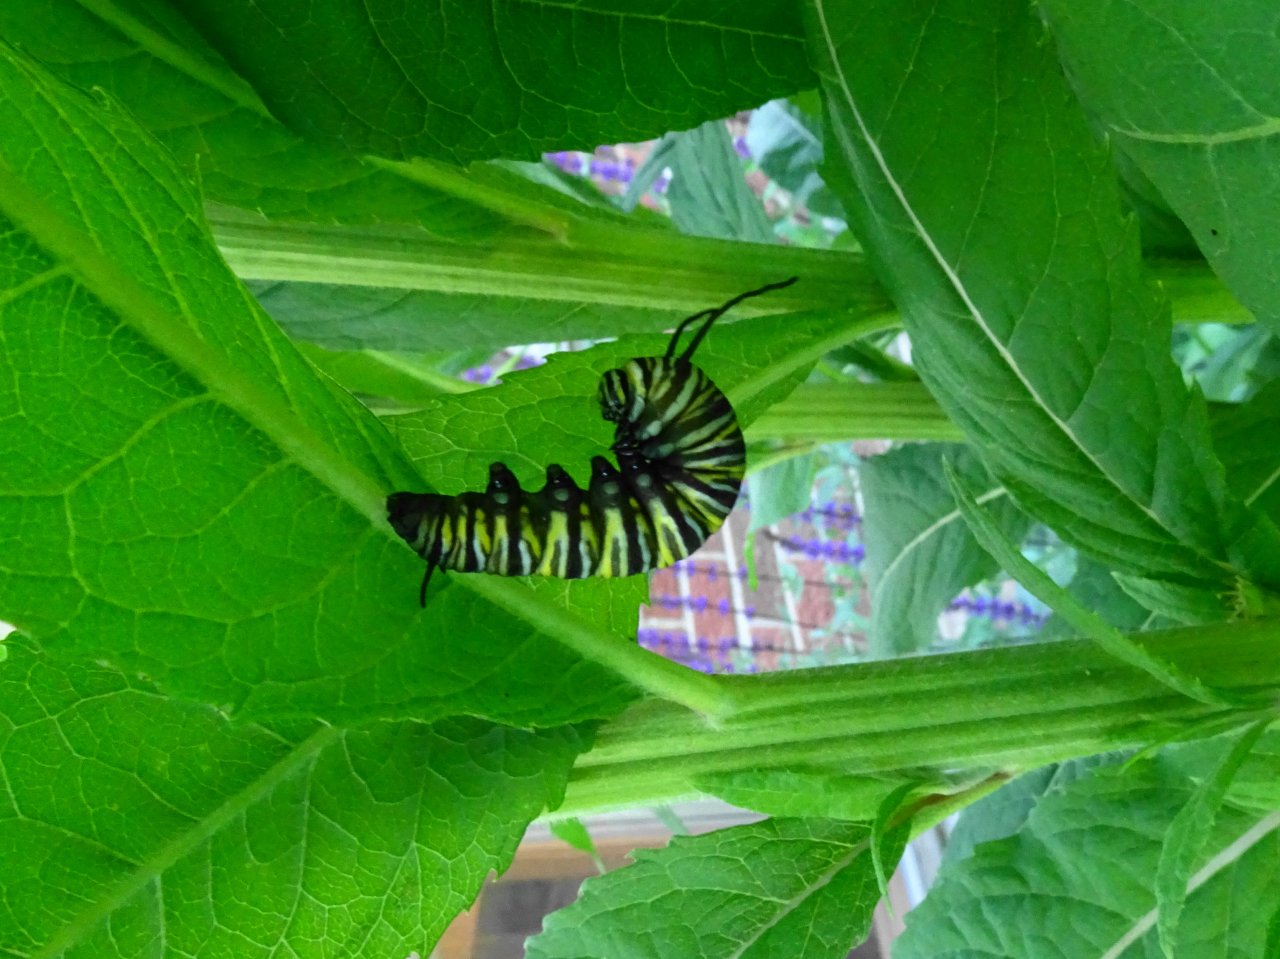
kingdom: Animalia
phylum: Arthropoda
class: Insecta
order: Lepidoptera
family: Nymphalidae
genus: Danaus
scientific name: Danaus plexippus
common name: Monarch
